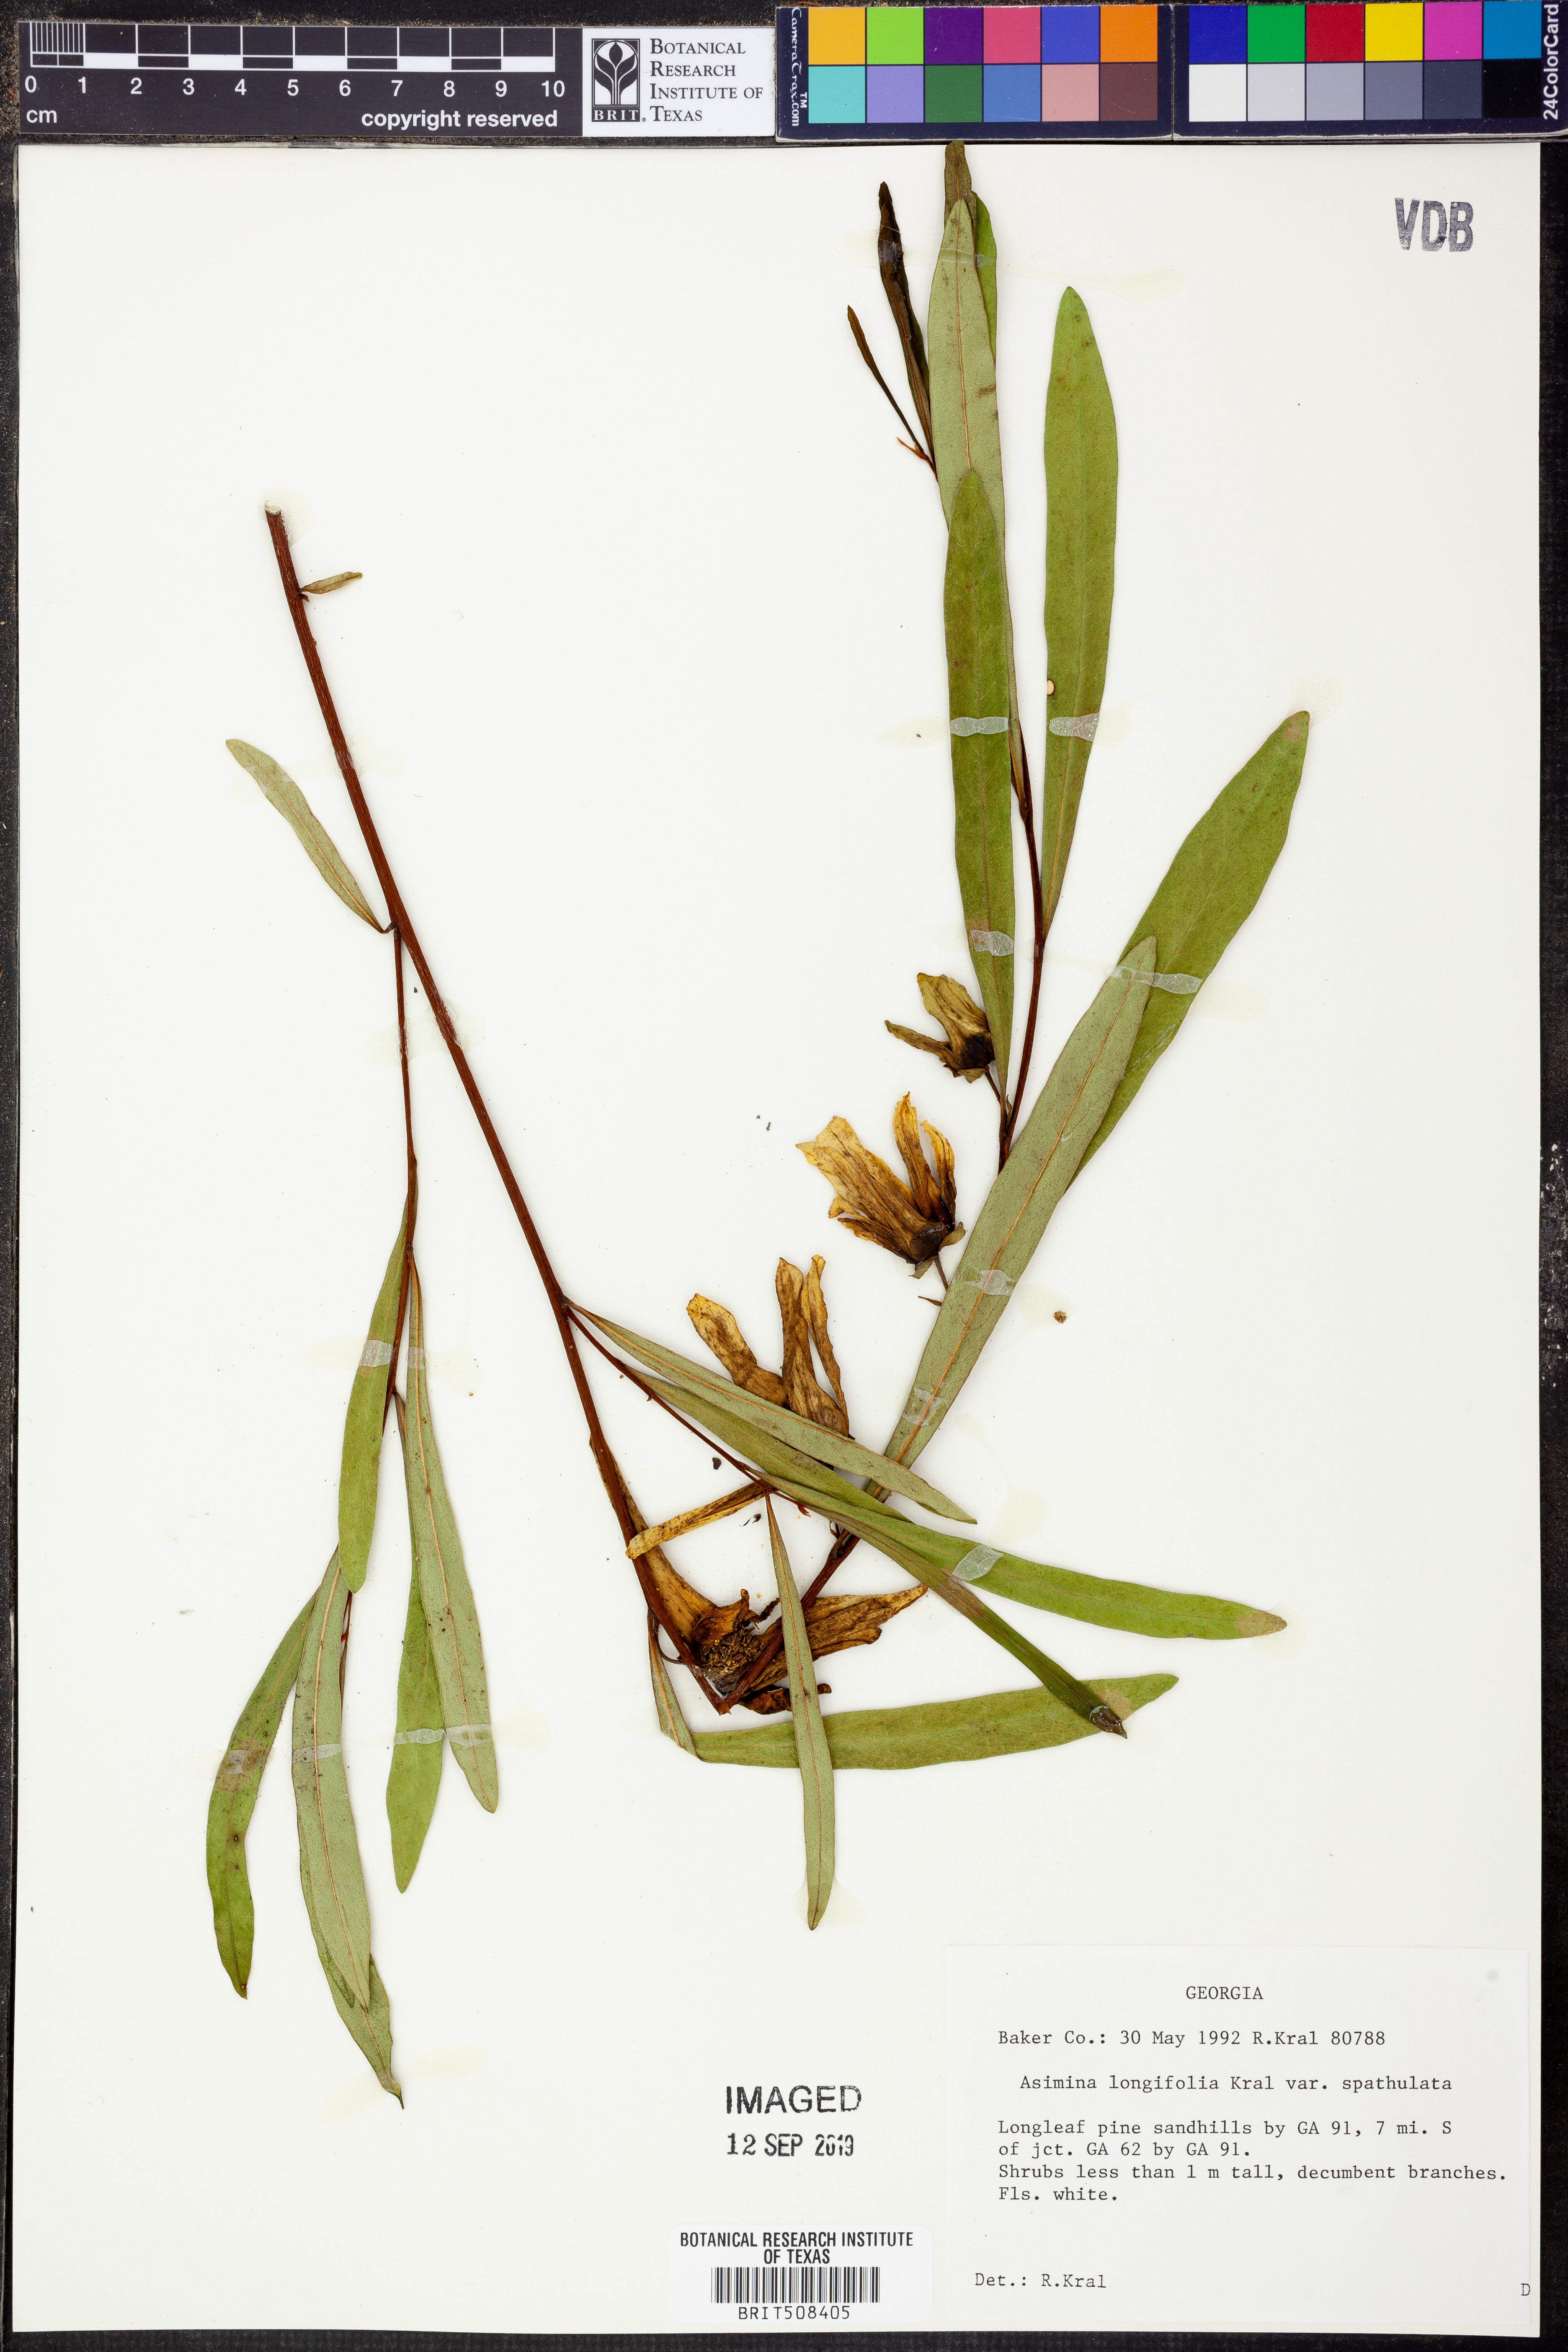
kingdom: Plantae
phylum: Tracheophyta
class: Magnoliopsida
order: Magnoliales
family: Annonaceae
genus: Asimina
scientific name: Asimina longifolia
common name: Polecatbush
